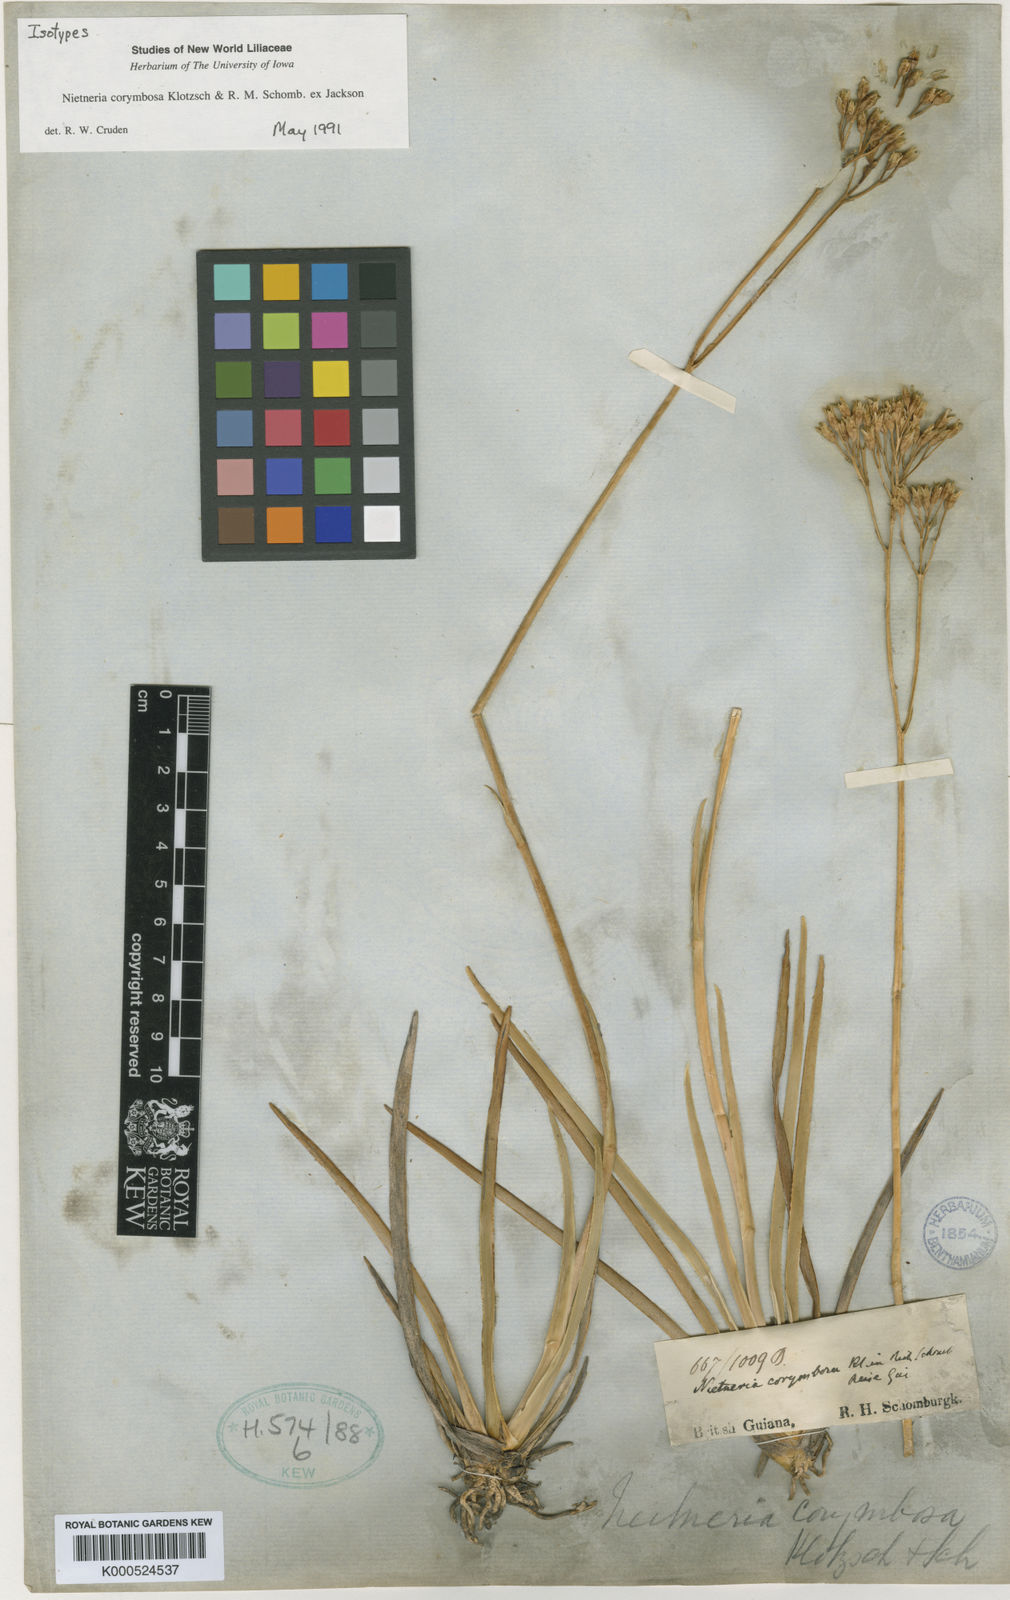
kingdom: Plantae
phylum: Tracheophyta
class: Liliopsida
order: Dioscoreales
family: Nartheciaceae
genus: Nietneria
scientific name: Nietneria corymbosa
